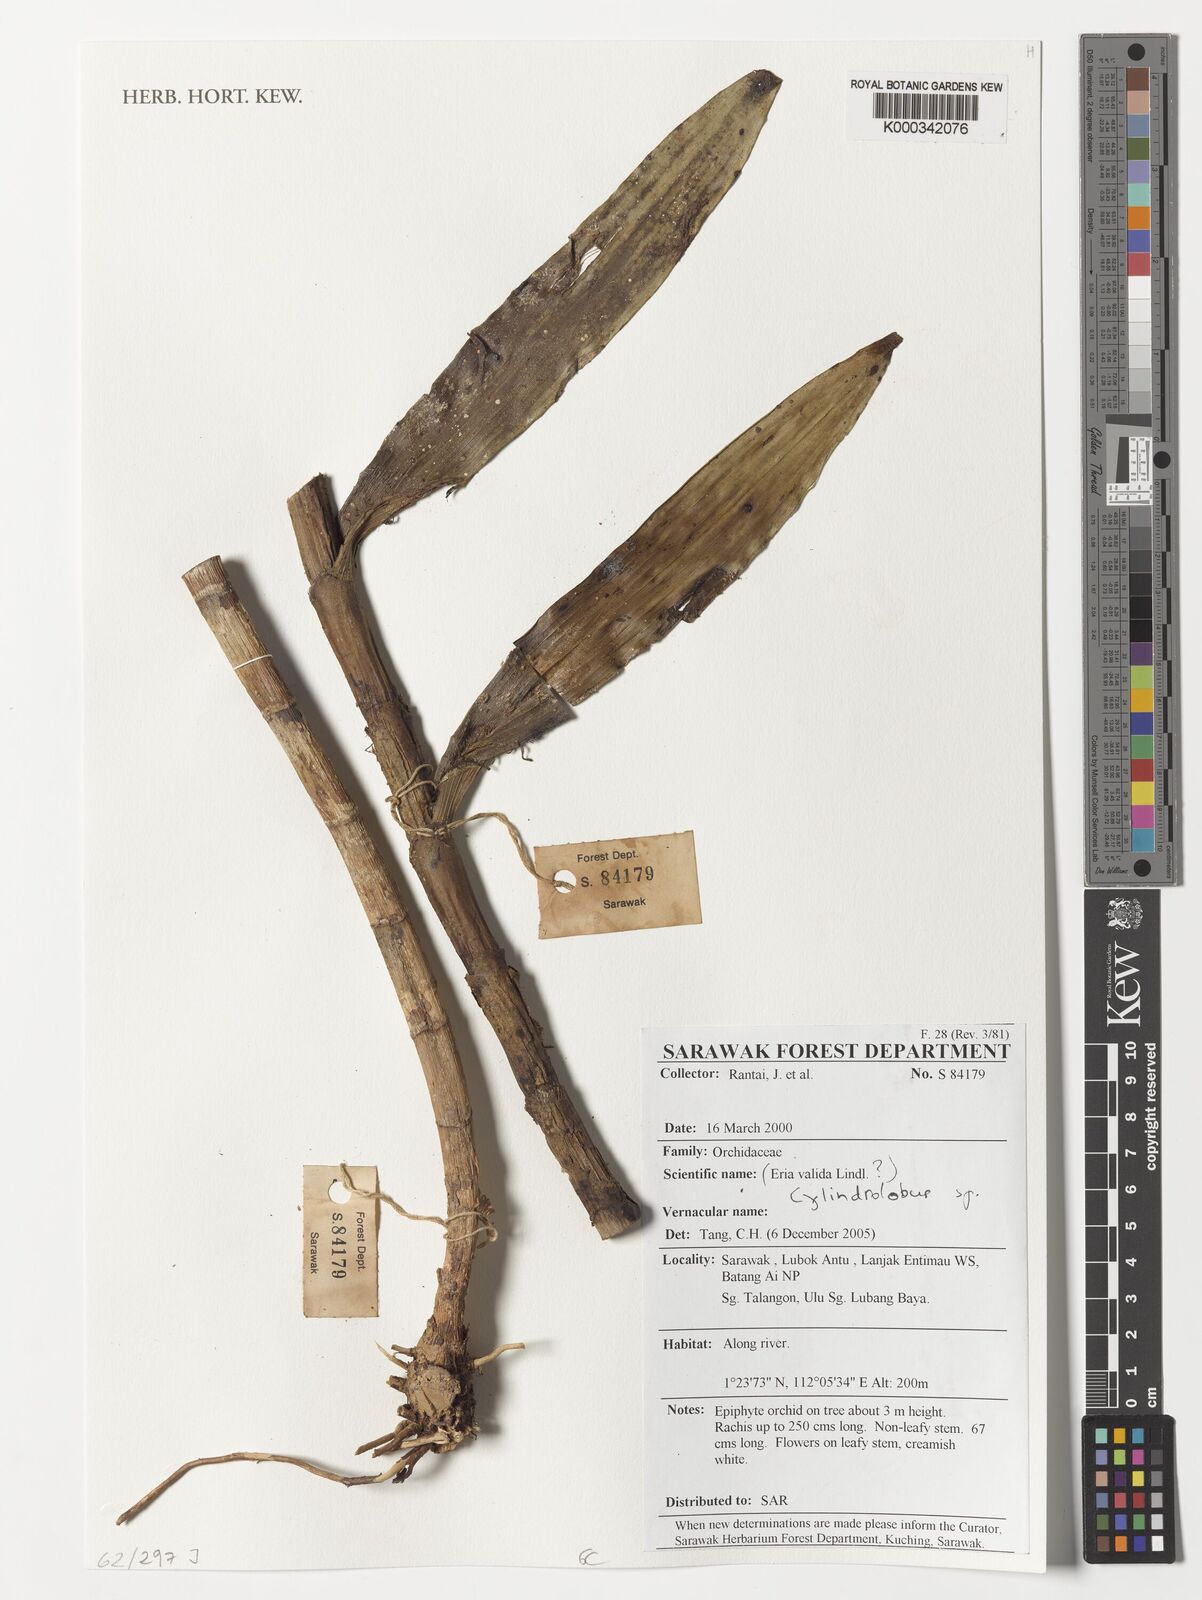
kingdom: Plantae
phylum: Tracheophyta
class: Liliopsida
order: Asparagales
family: Orchidaceae
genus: Cylindrolobus
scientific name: Cylindrolobus
